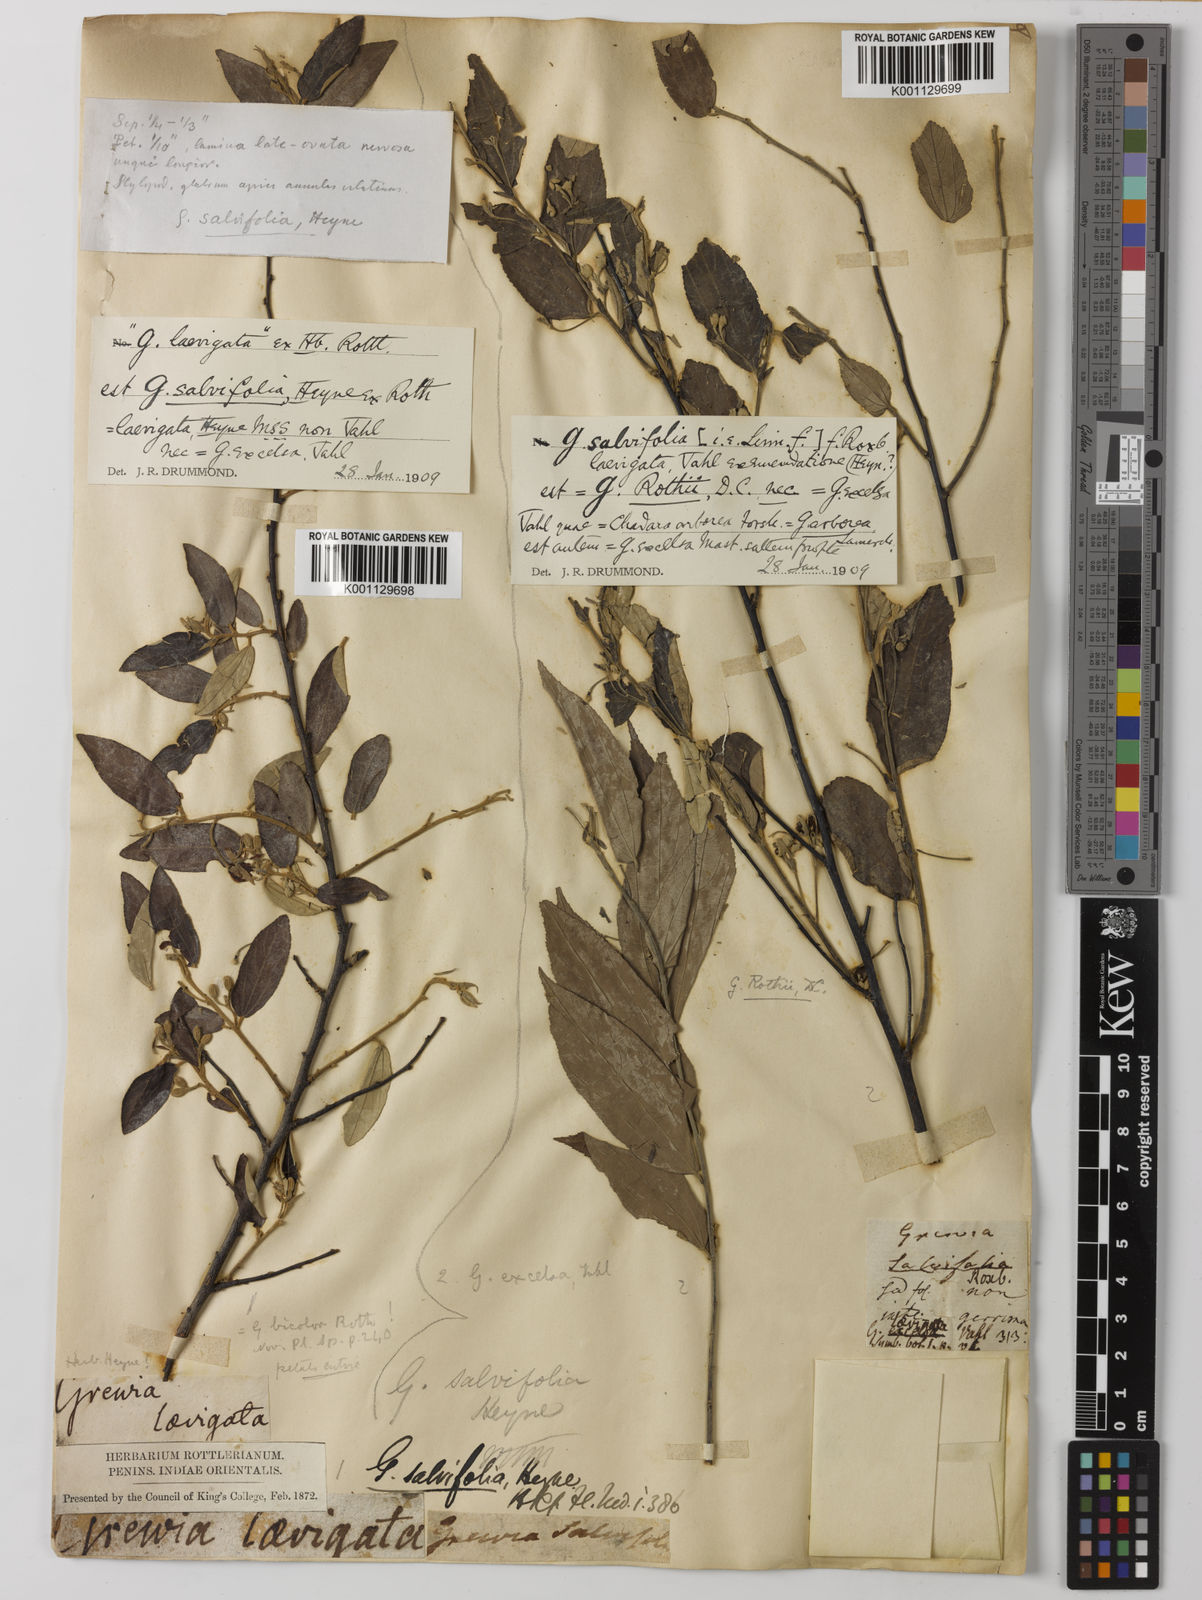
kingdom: Plantae
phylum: Tracheophyta
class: Magnoliopsida
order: Malvales
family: Malvaceae
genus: Grewia
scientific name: Grewia tiliifolia
